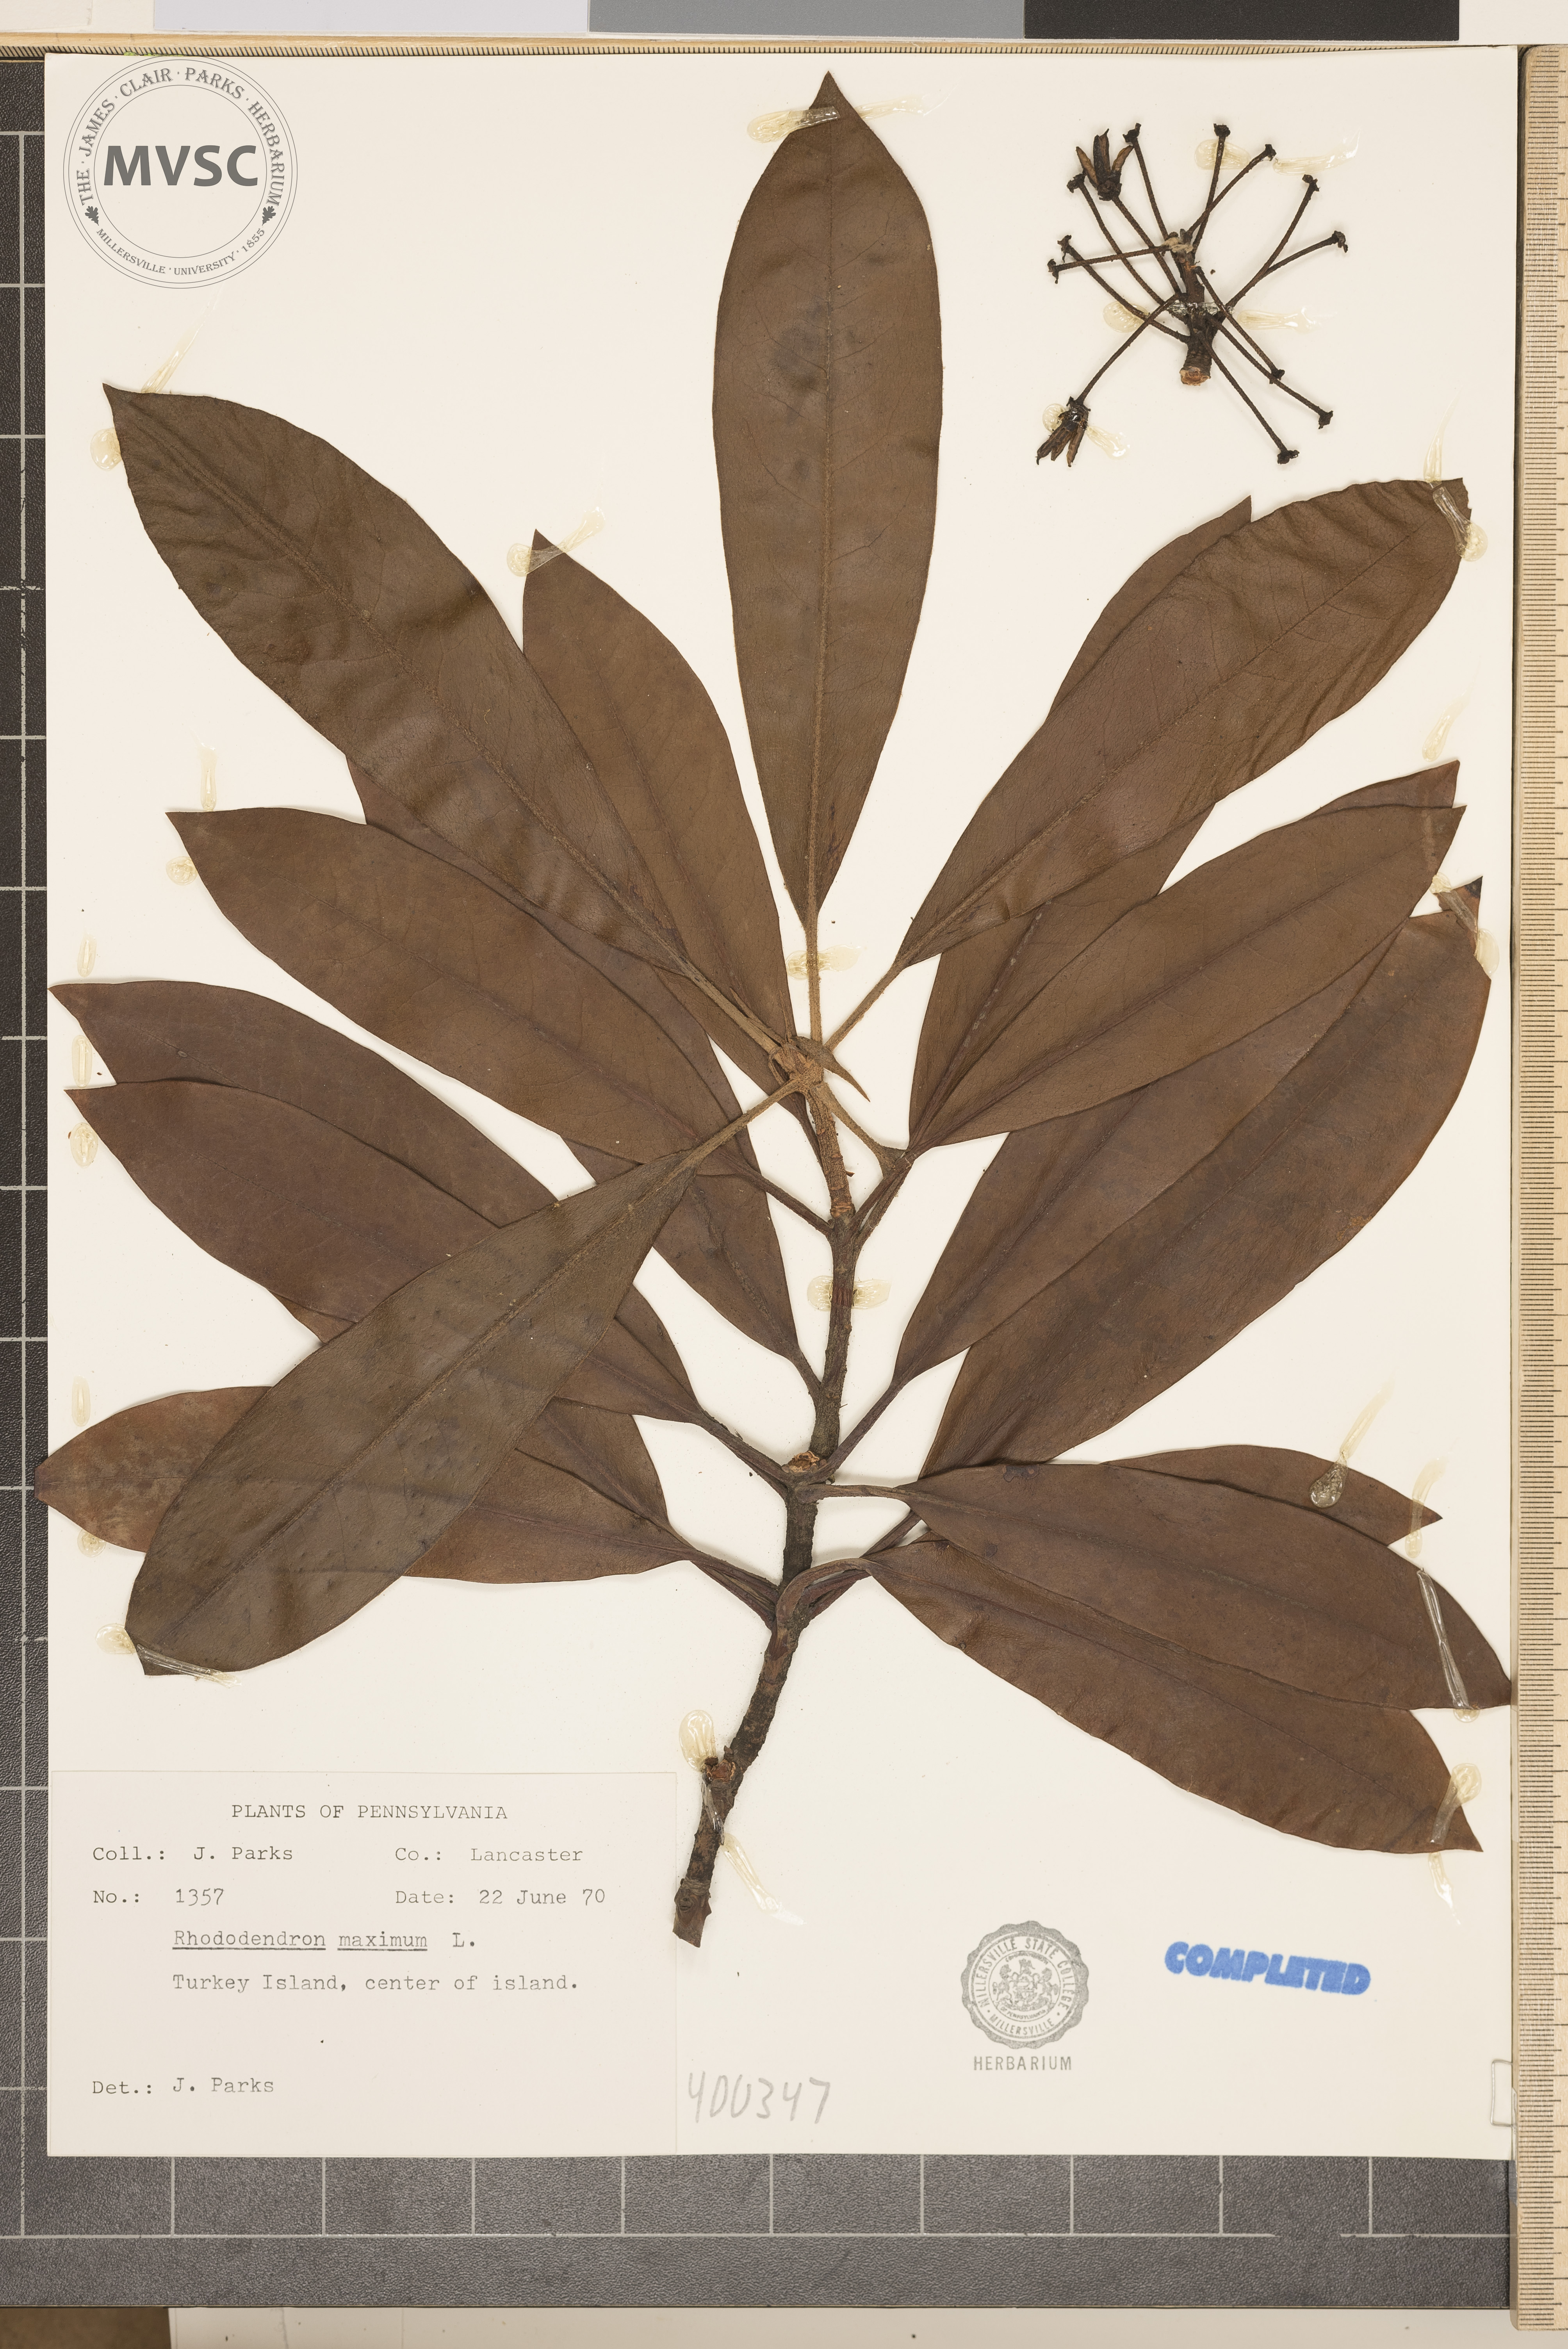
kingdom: Plantae
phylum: Tracheophyta
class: Magnoliopsida
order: Ericales
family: Ericaceae
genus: Rhododendron
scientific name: Rhododendron maximum
